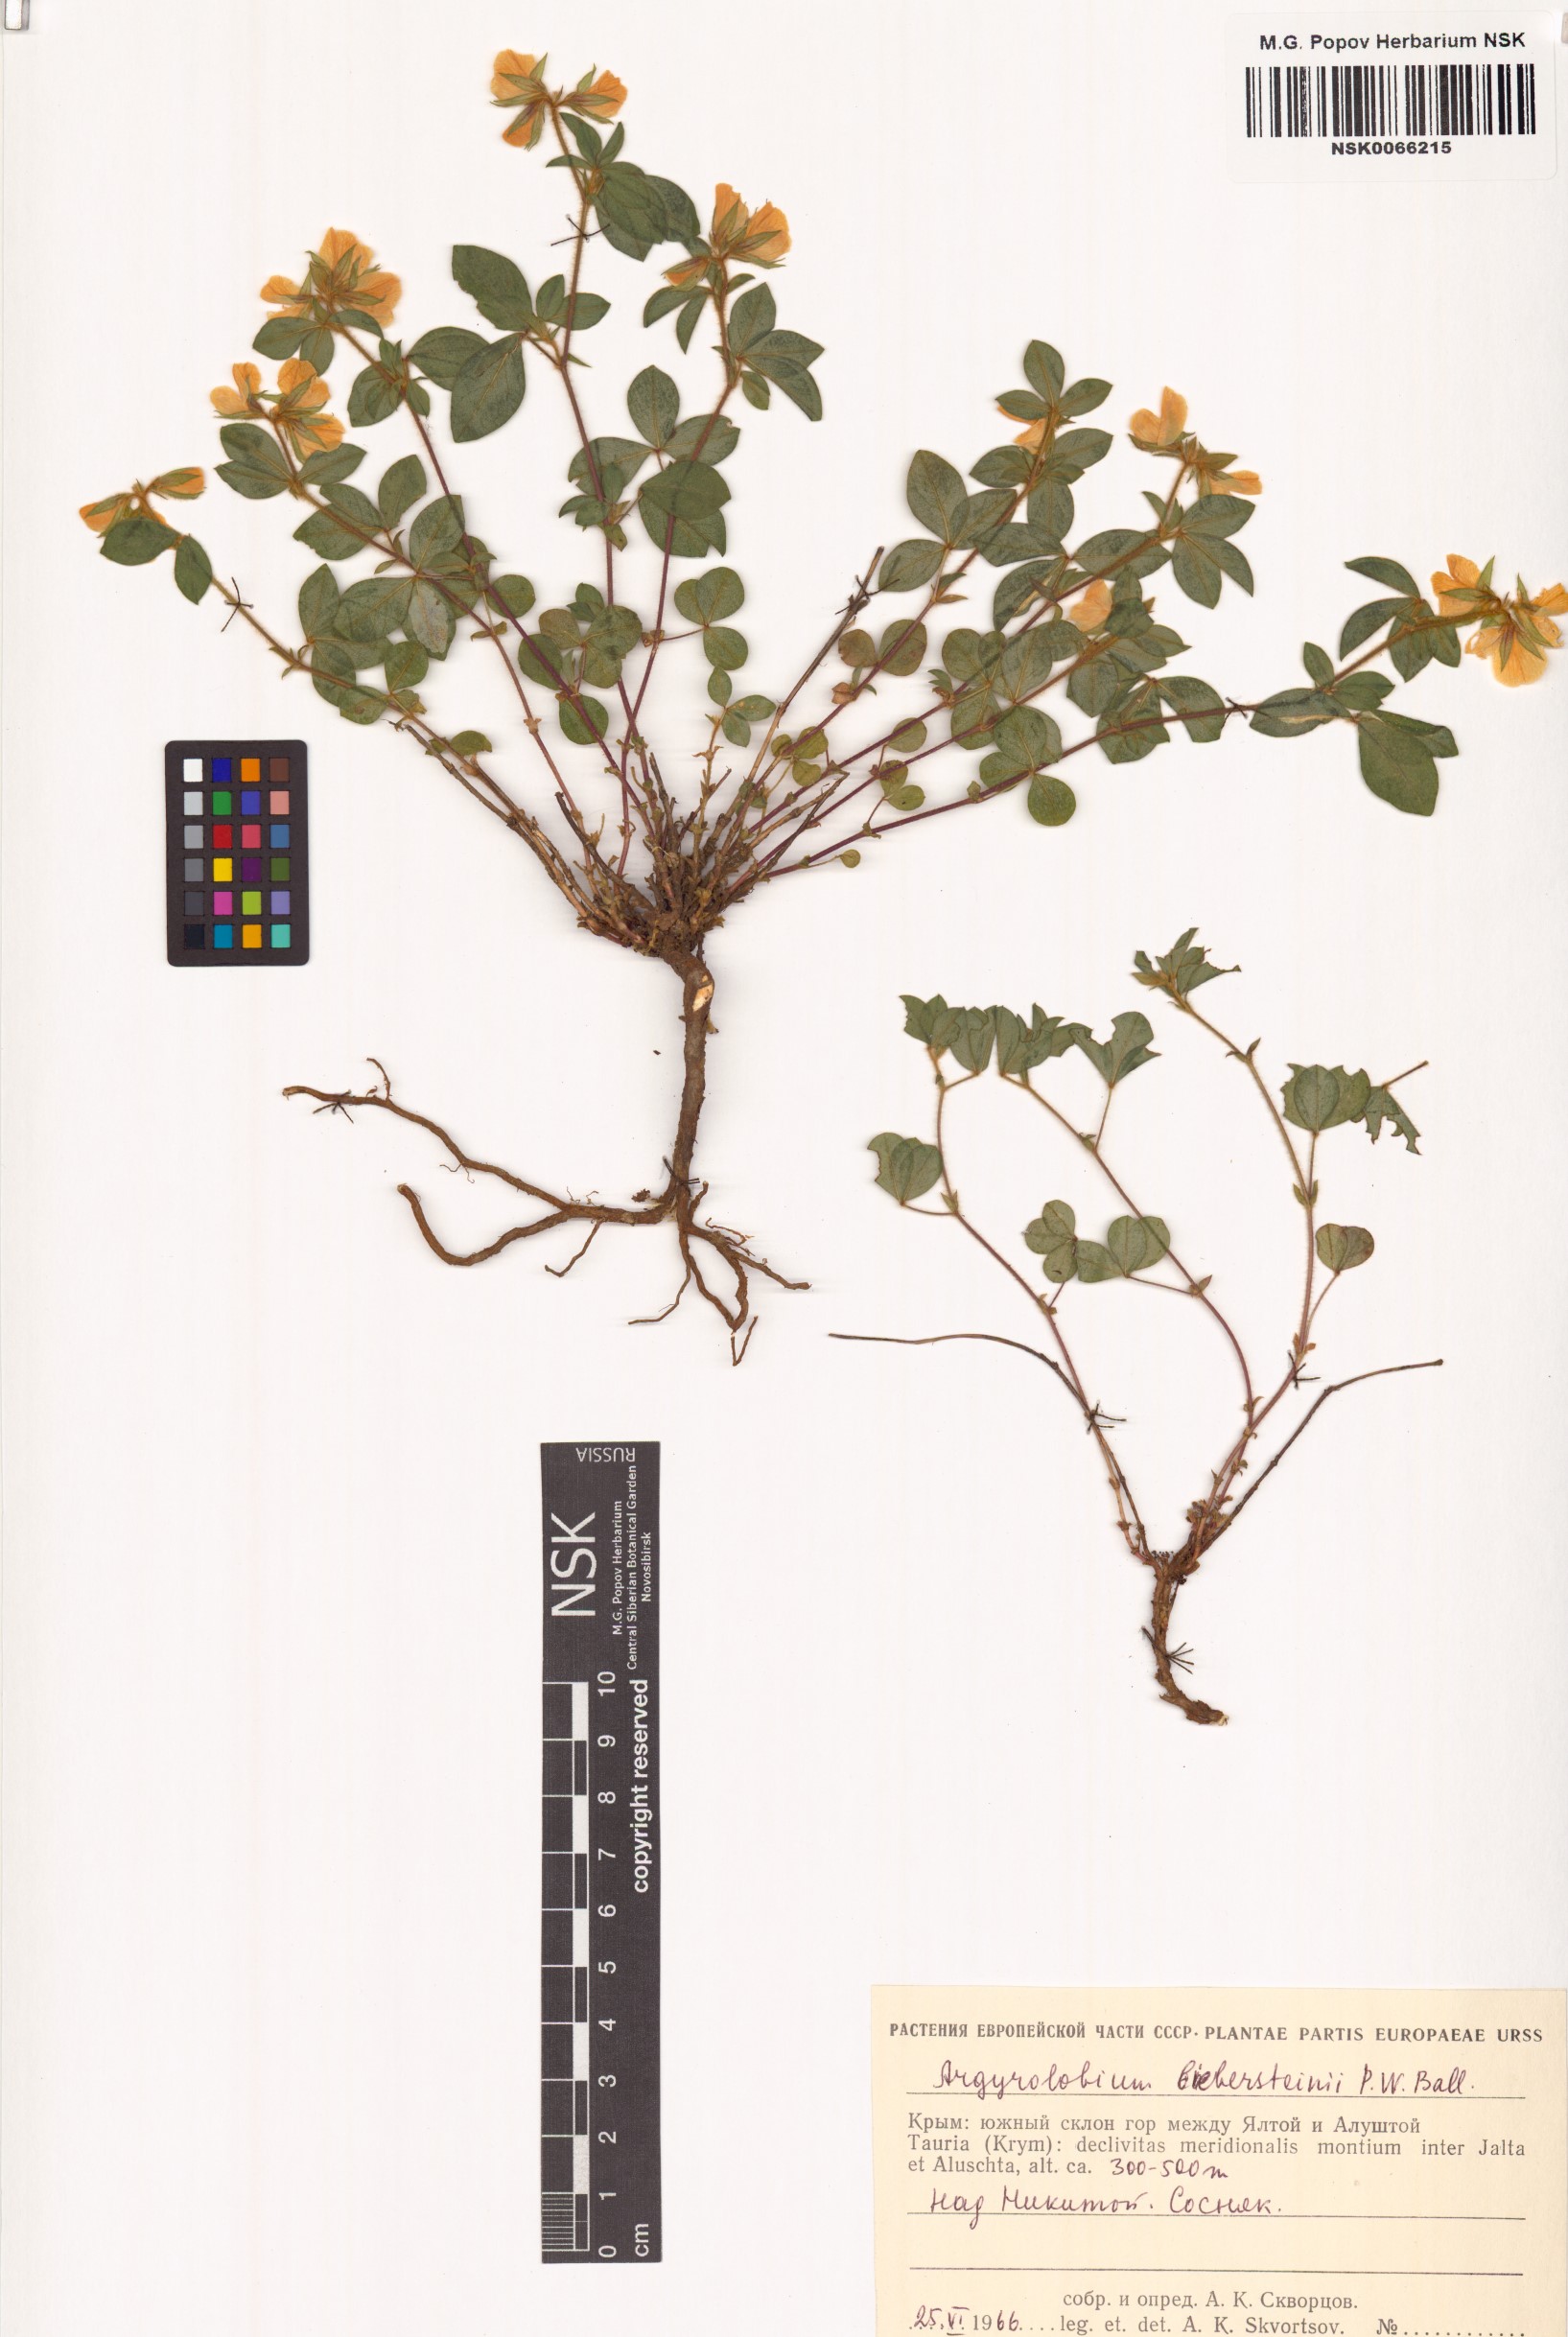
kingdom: Plantae
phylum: Tracheophyta
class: Magnoliopsida
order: Fabales
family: Fabaceae
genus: Argyrolobium
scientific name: Argyrolobium biebersteinii
